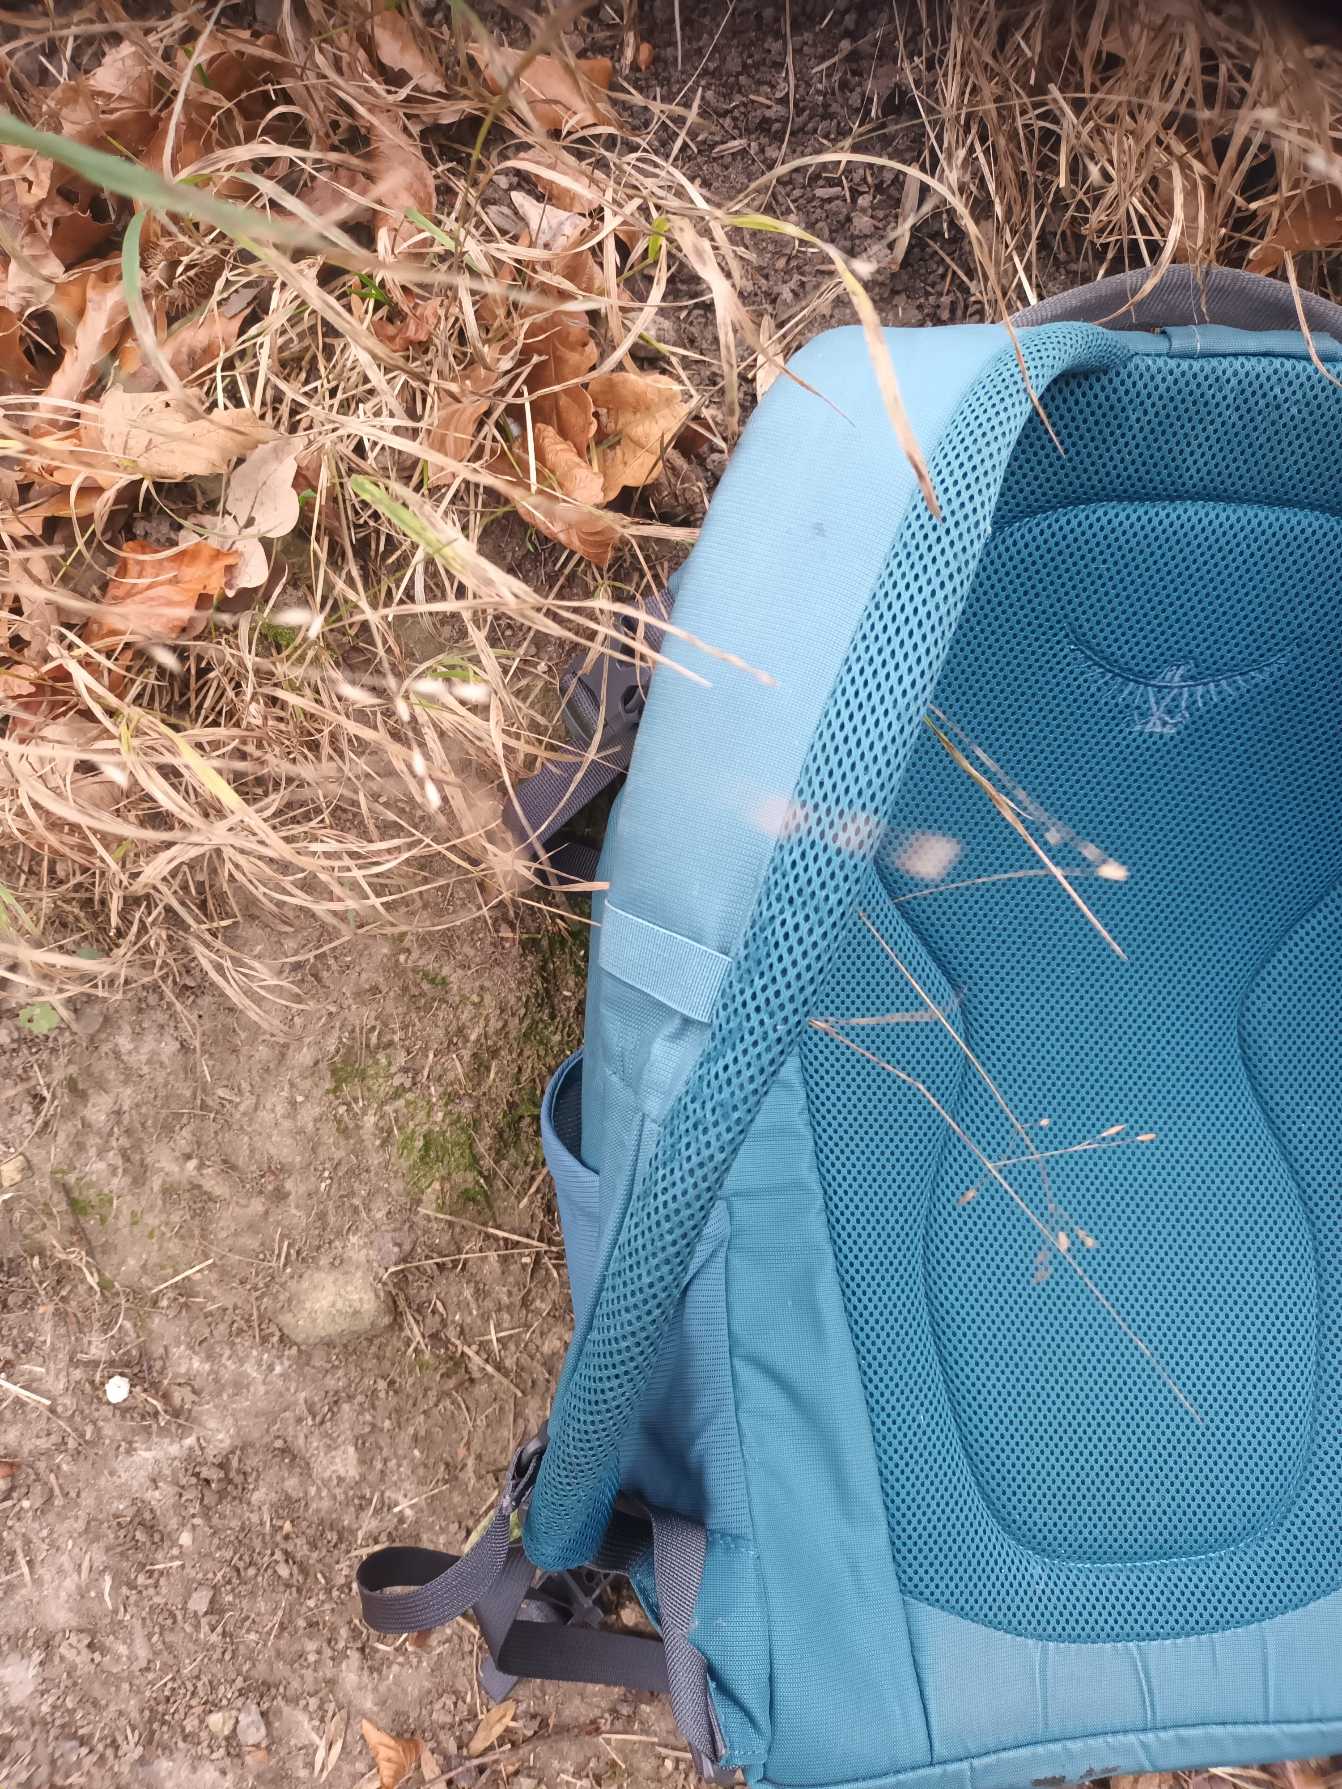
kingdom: Plantae
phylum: Tracheophyta
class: Liliopsida
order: Poales
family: Poaceae
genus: Melica
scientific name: Melica uniflora
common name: Enblomstret flitteraks
